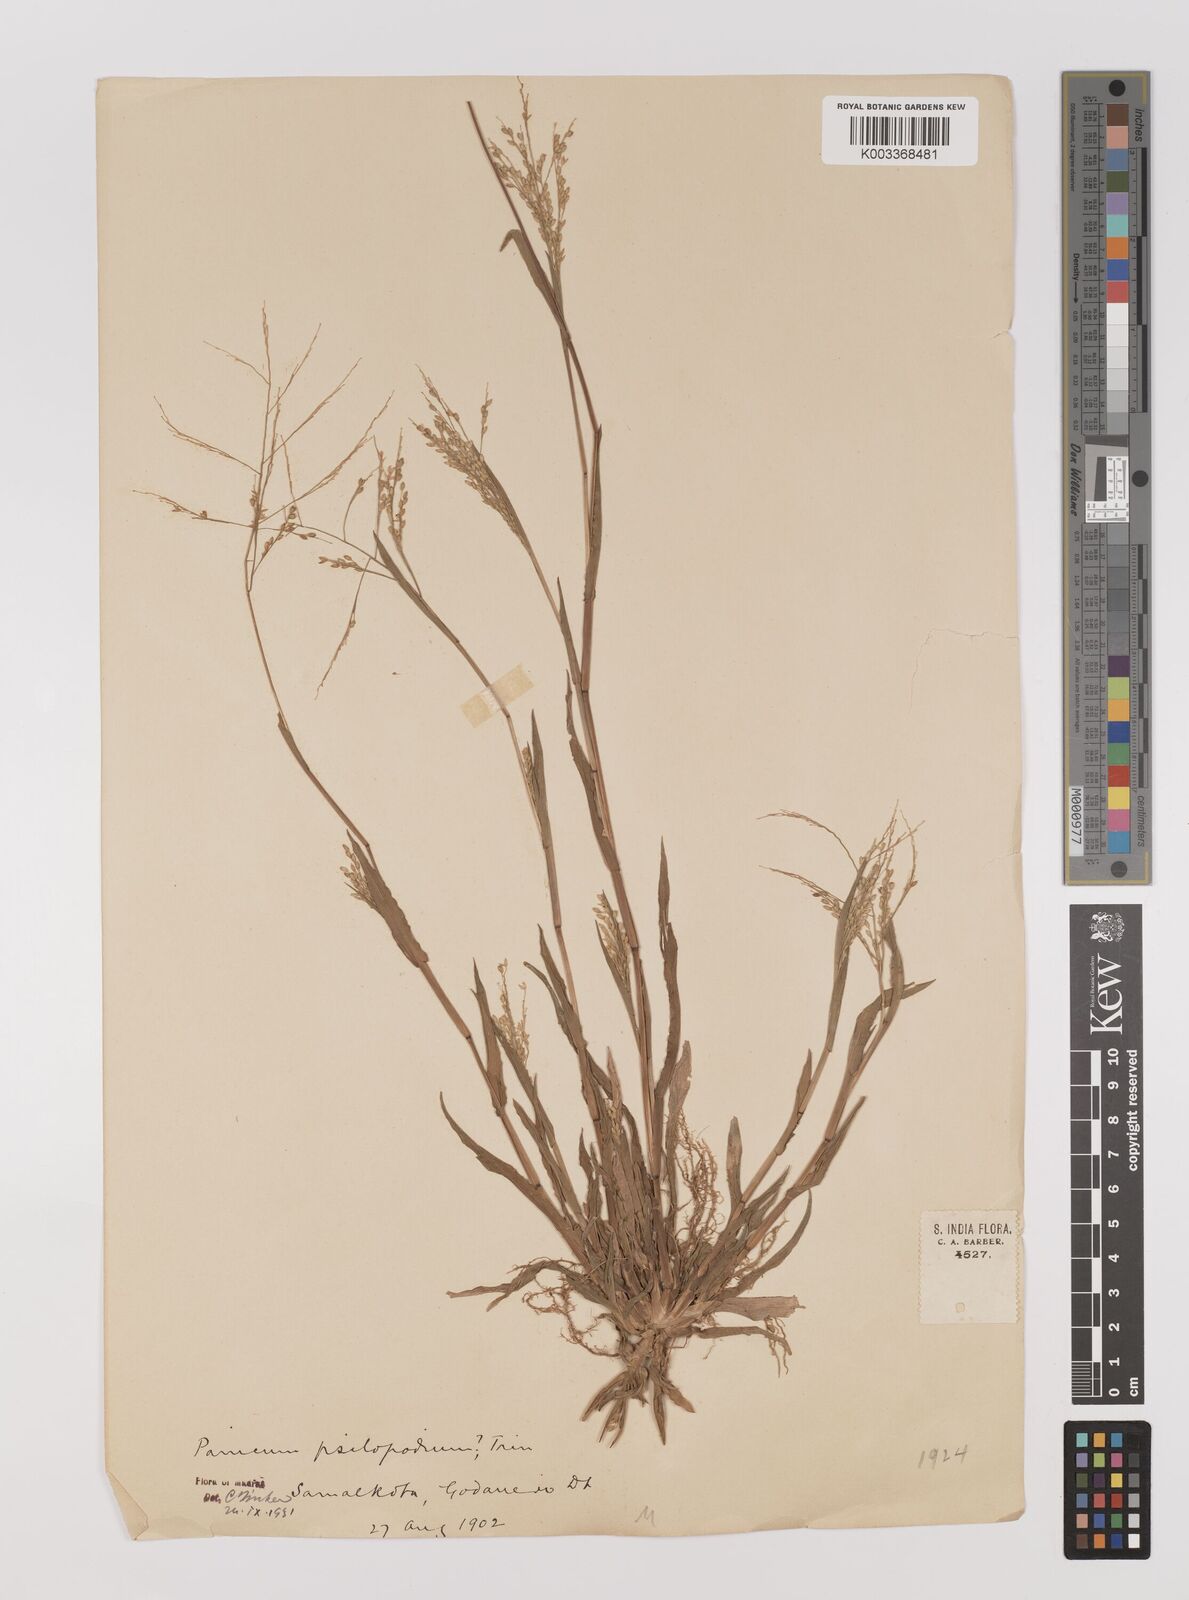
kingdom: Plantae
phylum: Tracheophyta
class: Liliopsida
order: Poales
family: Poaceae
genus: Panicum
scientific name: Panicum sumatrense
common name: Little millet
